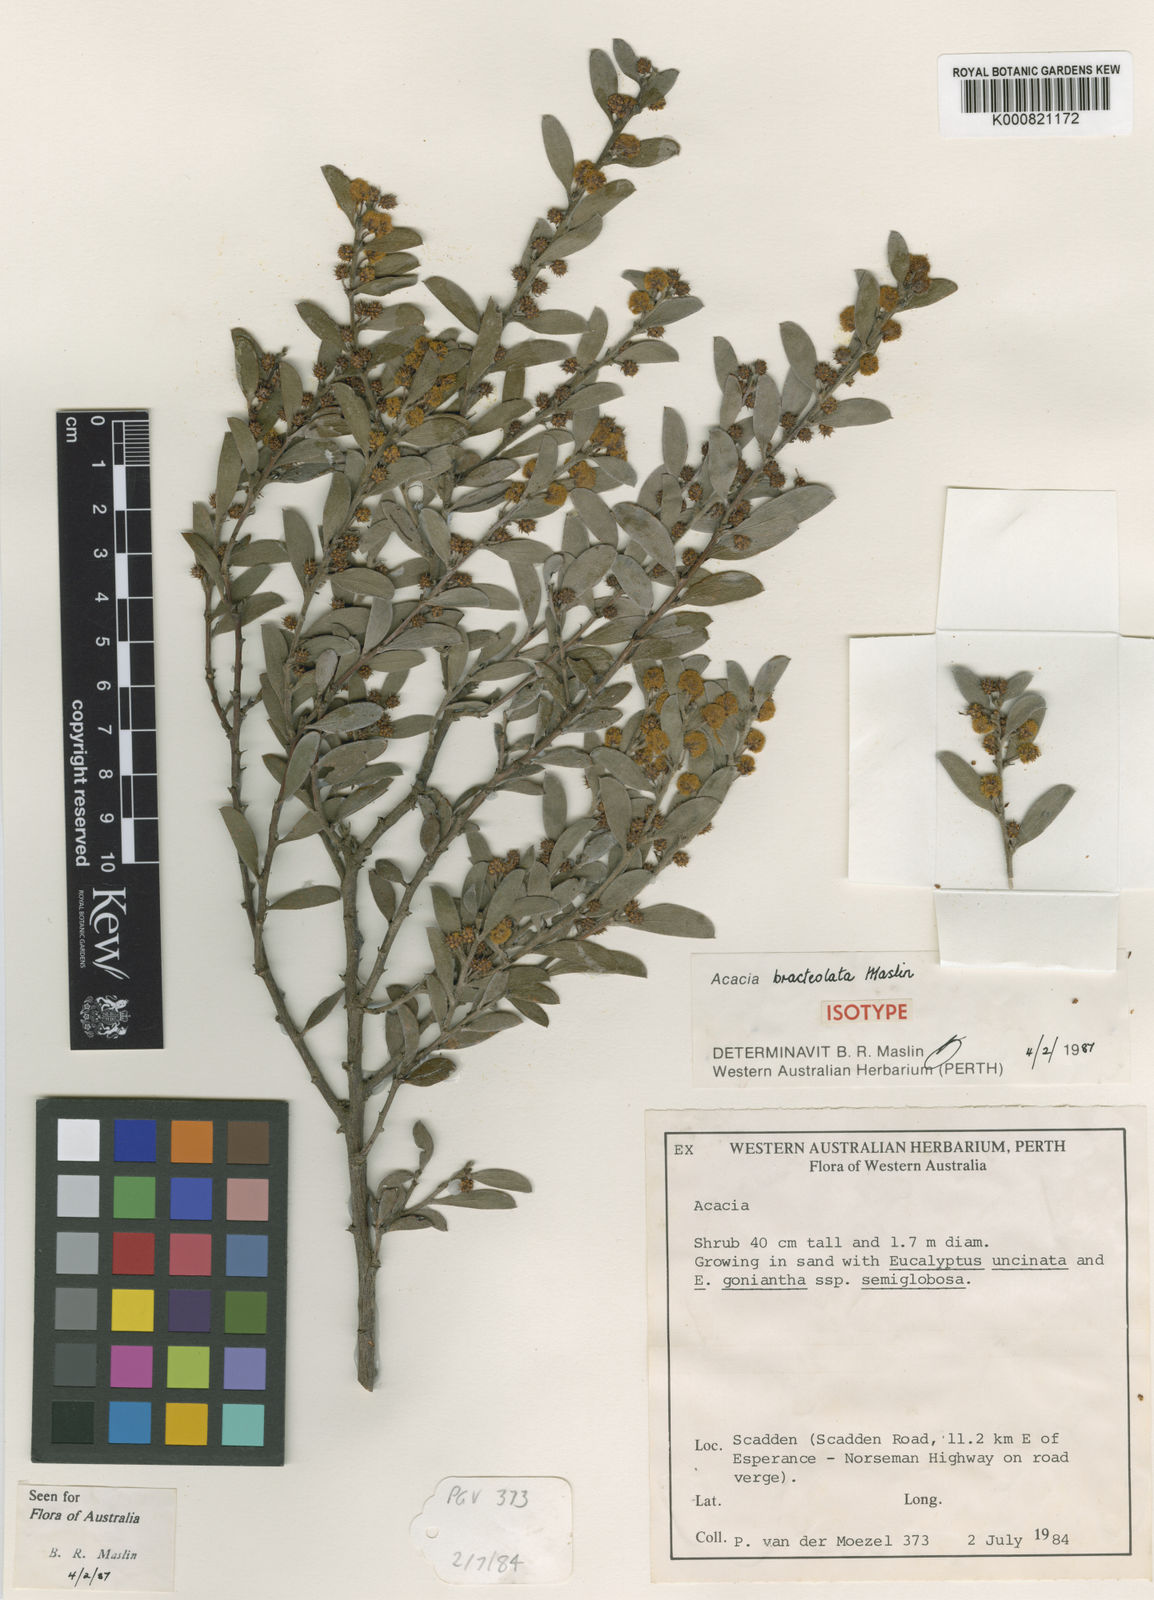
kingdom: Plantae
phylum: Tracheophyta
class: Magnoliopsida
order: Fabales
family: Fabaceae
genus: Acacia
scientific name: Acacia bracteolata
